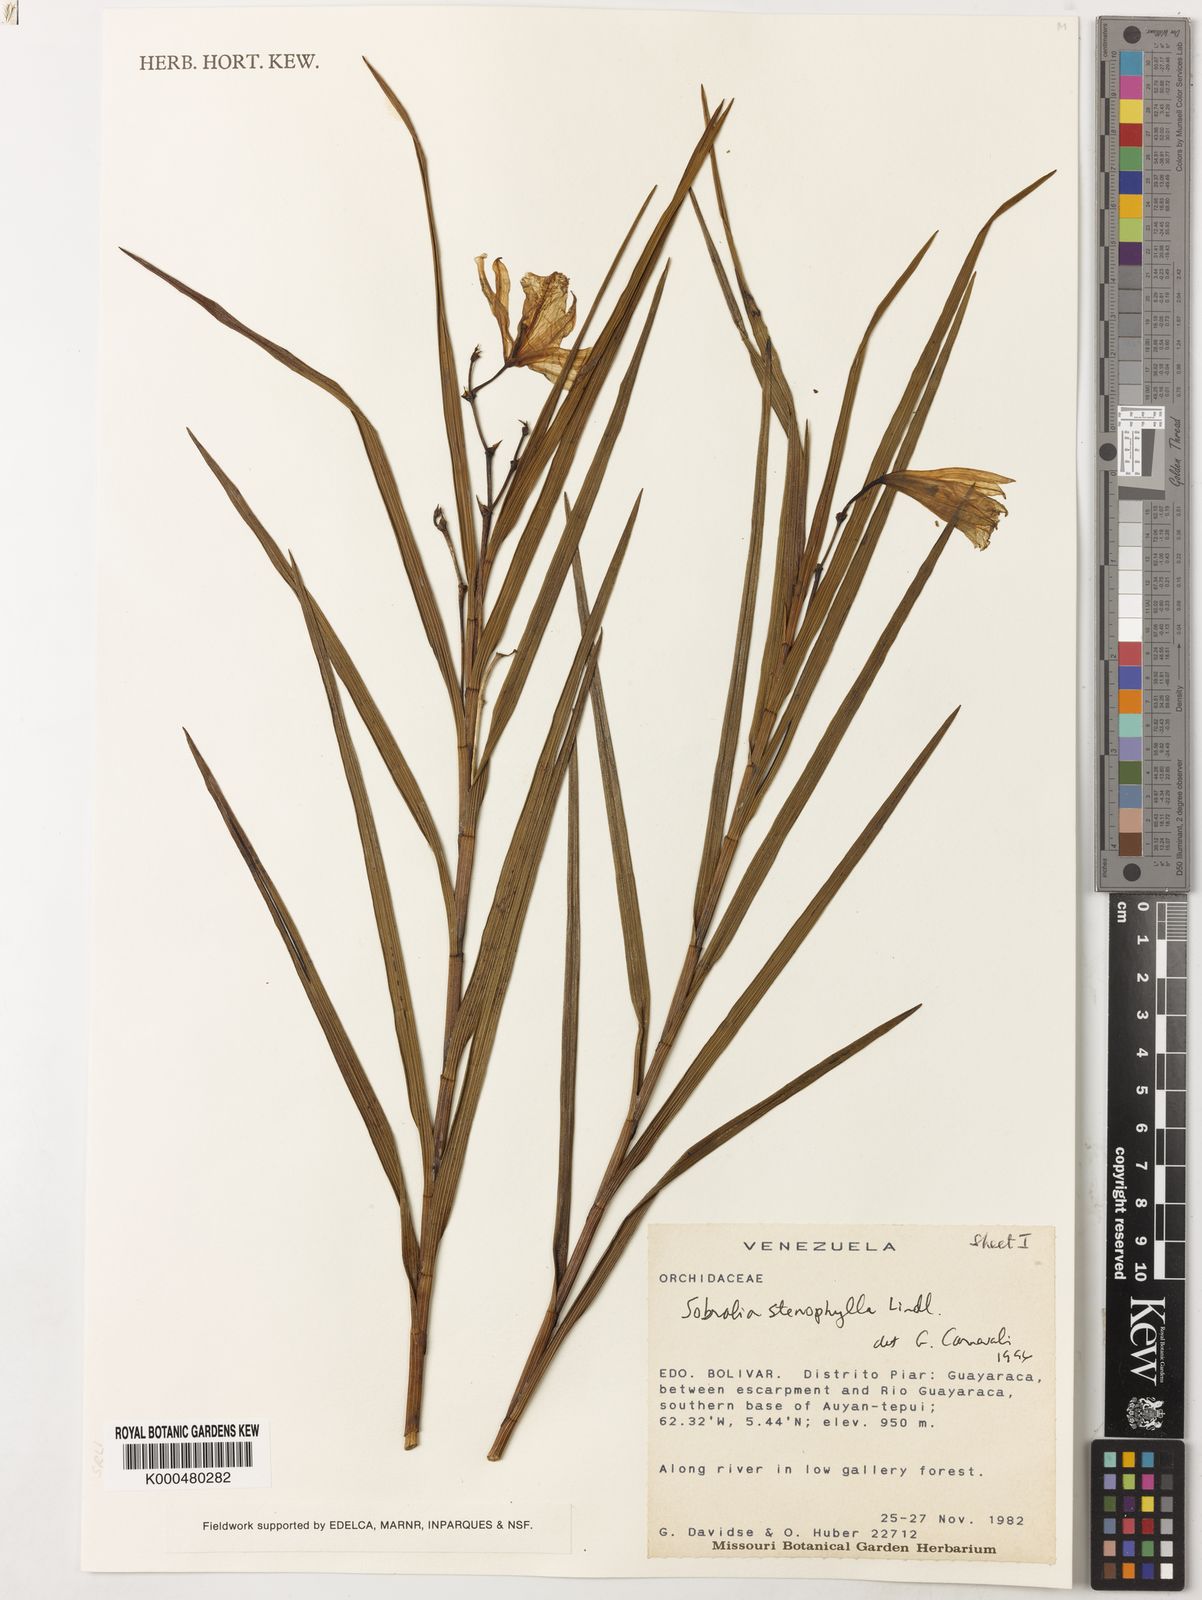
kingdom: Plantae
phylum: Tracheophyta
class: Liliopsida
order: Asparagales
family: Orchidaceae
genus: Sobralia
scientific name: Sobralia stenophylla
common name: Thin leafed sobralia
